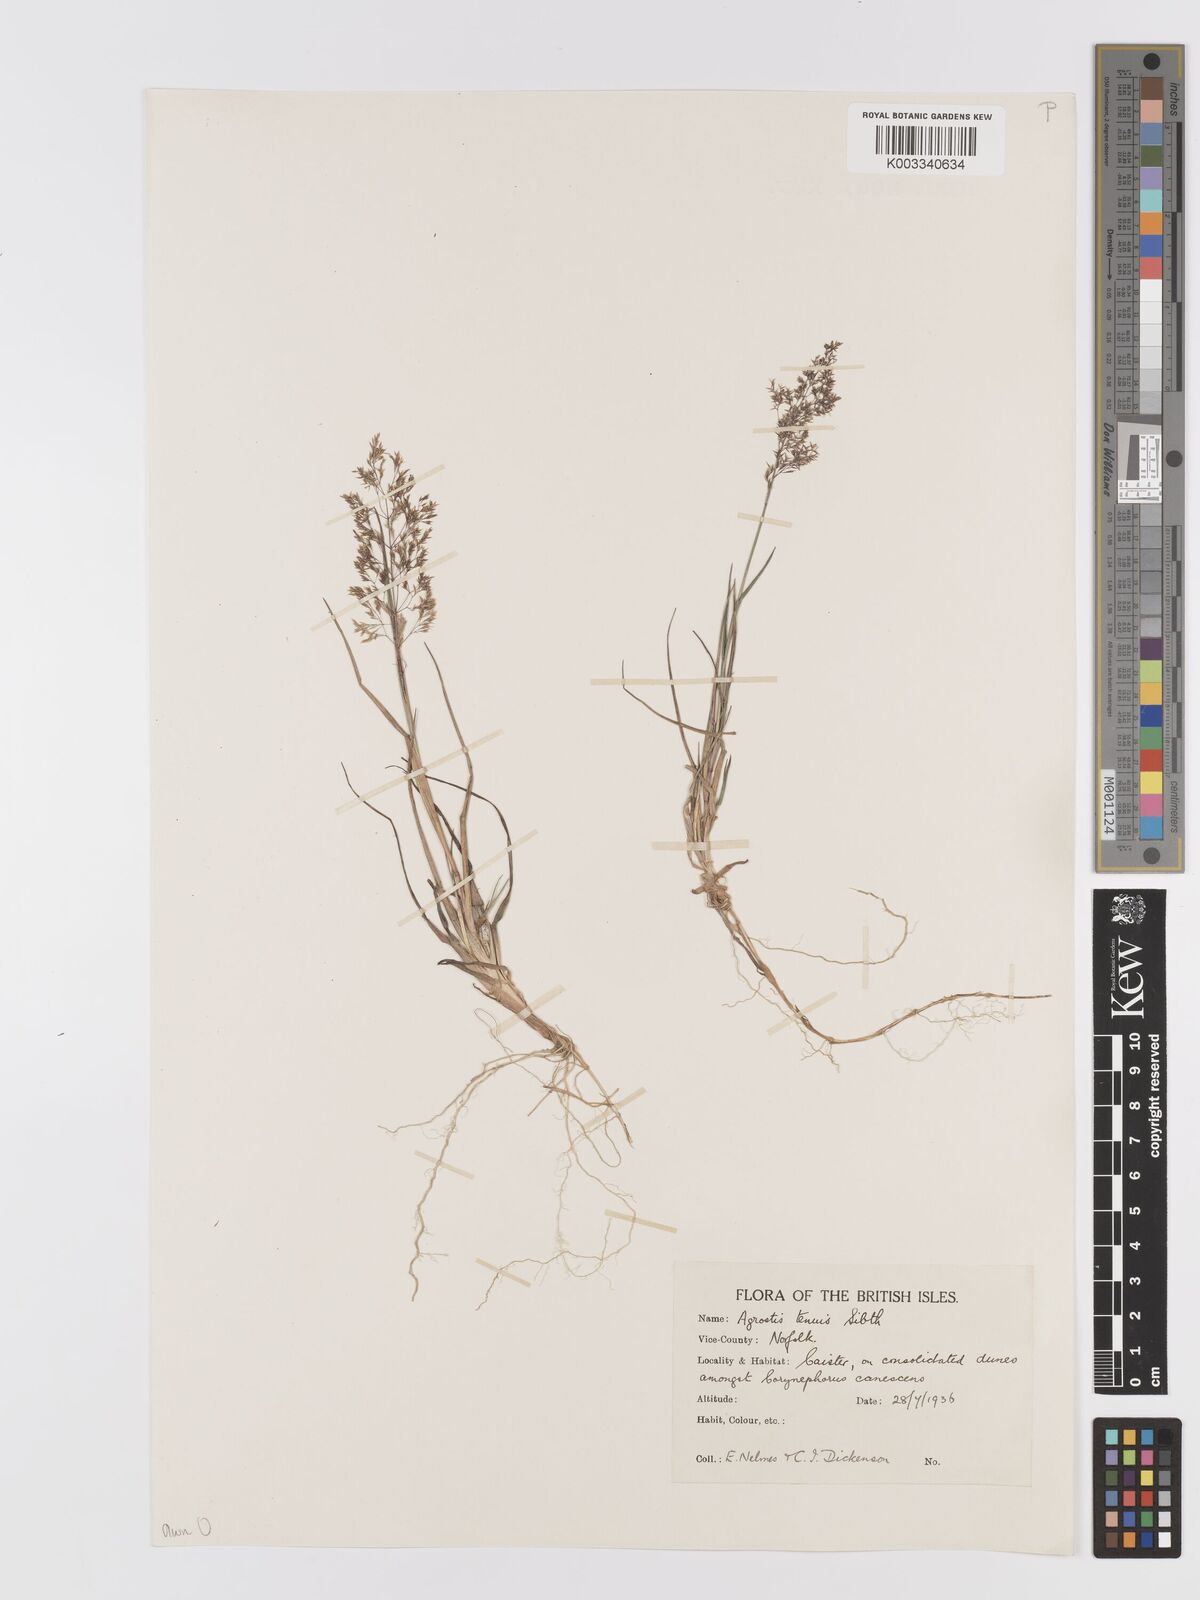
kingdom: Plantae
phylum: Tracheophyta
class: Liliopsida
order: Poales
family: Poaceae
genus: Agrostis
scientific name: Agrostis capillaris
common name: Colonial bentgrass
